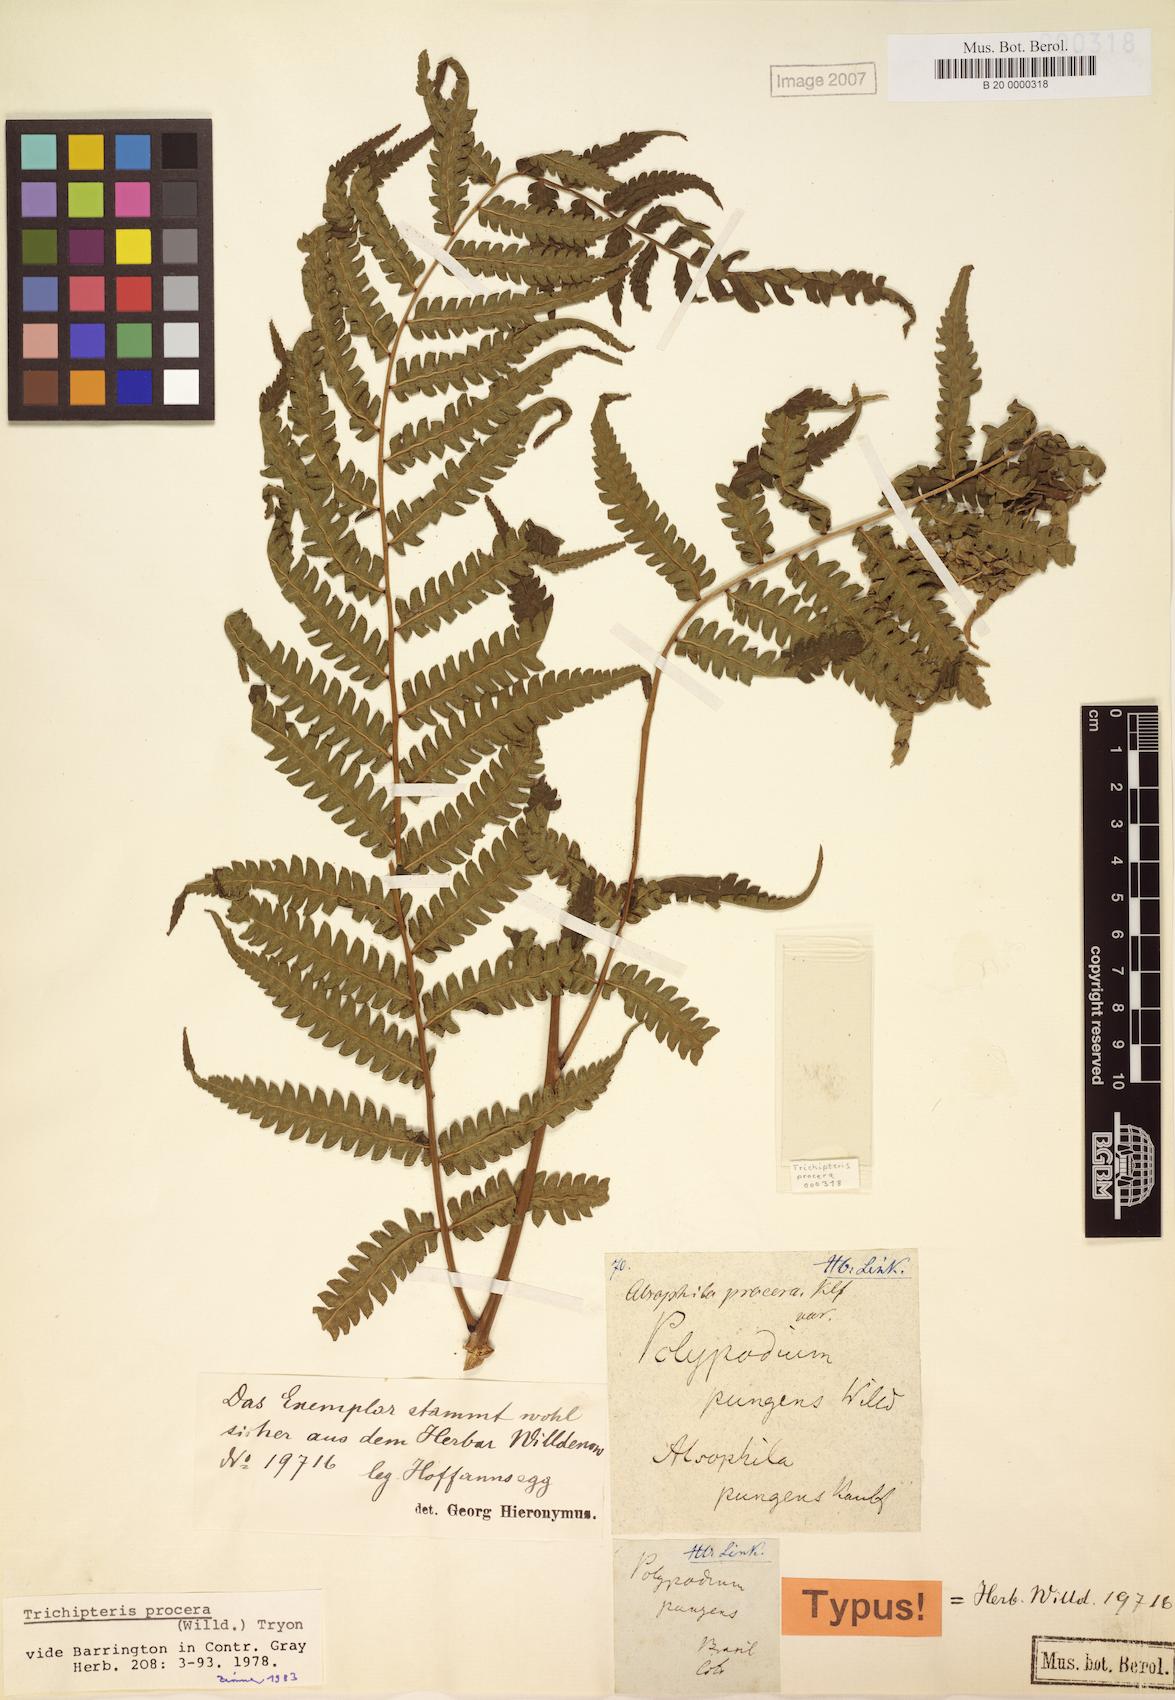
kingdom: Plantae
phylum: Tracheophyta
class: Polypodiopsida
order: Cyatheales
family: Cyatheaceae
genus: Cyathea
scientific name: Cyathea pungens
